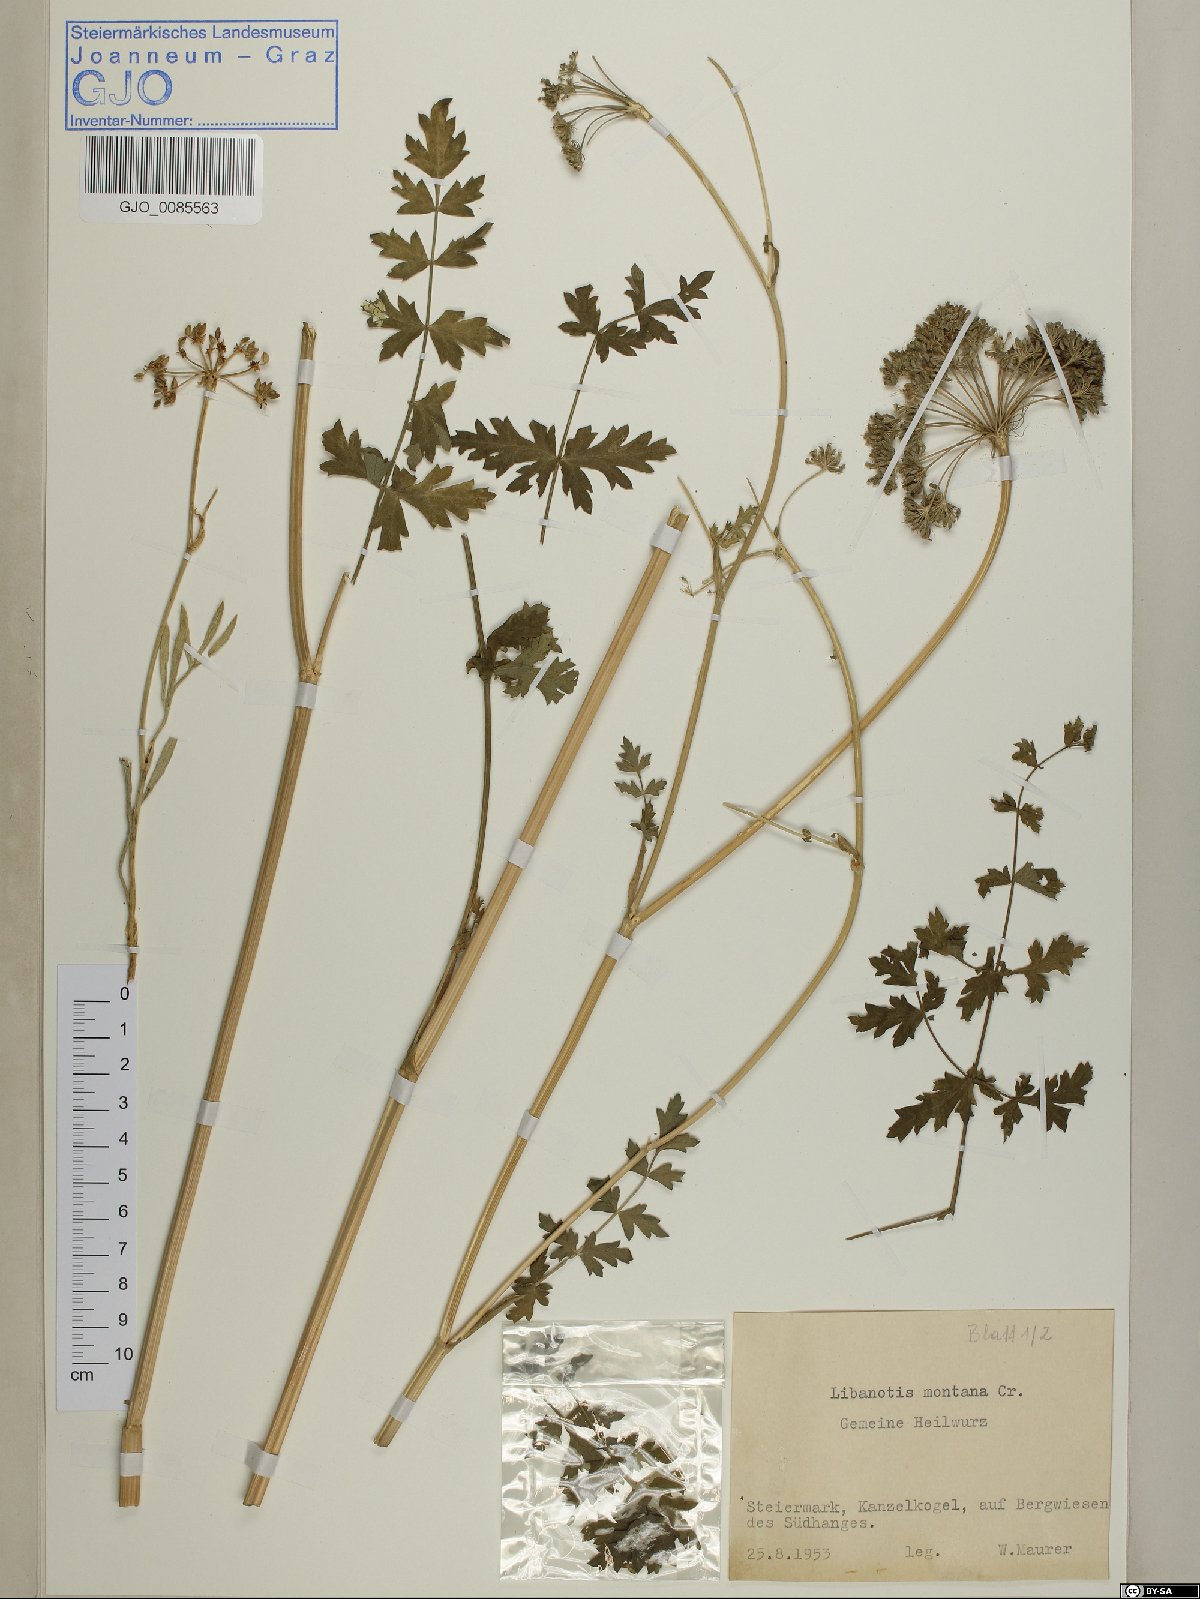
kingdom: Plantae
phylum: Tracheophyta
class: Magnoliopsida
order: Apiales
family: Apiaceae
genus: Seseli
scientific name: Seseli libanotis
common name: Mooncarrot
